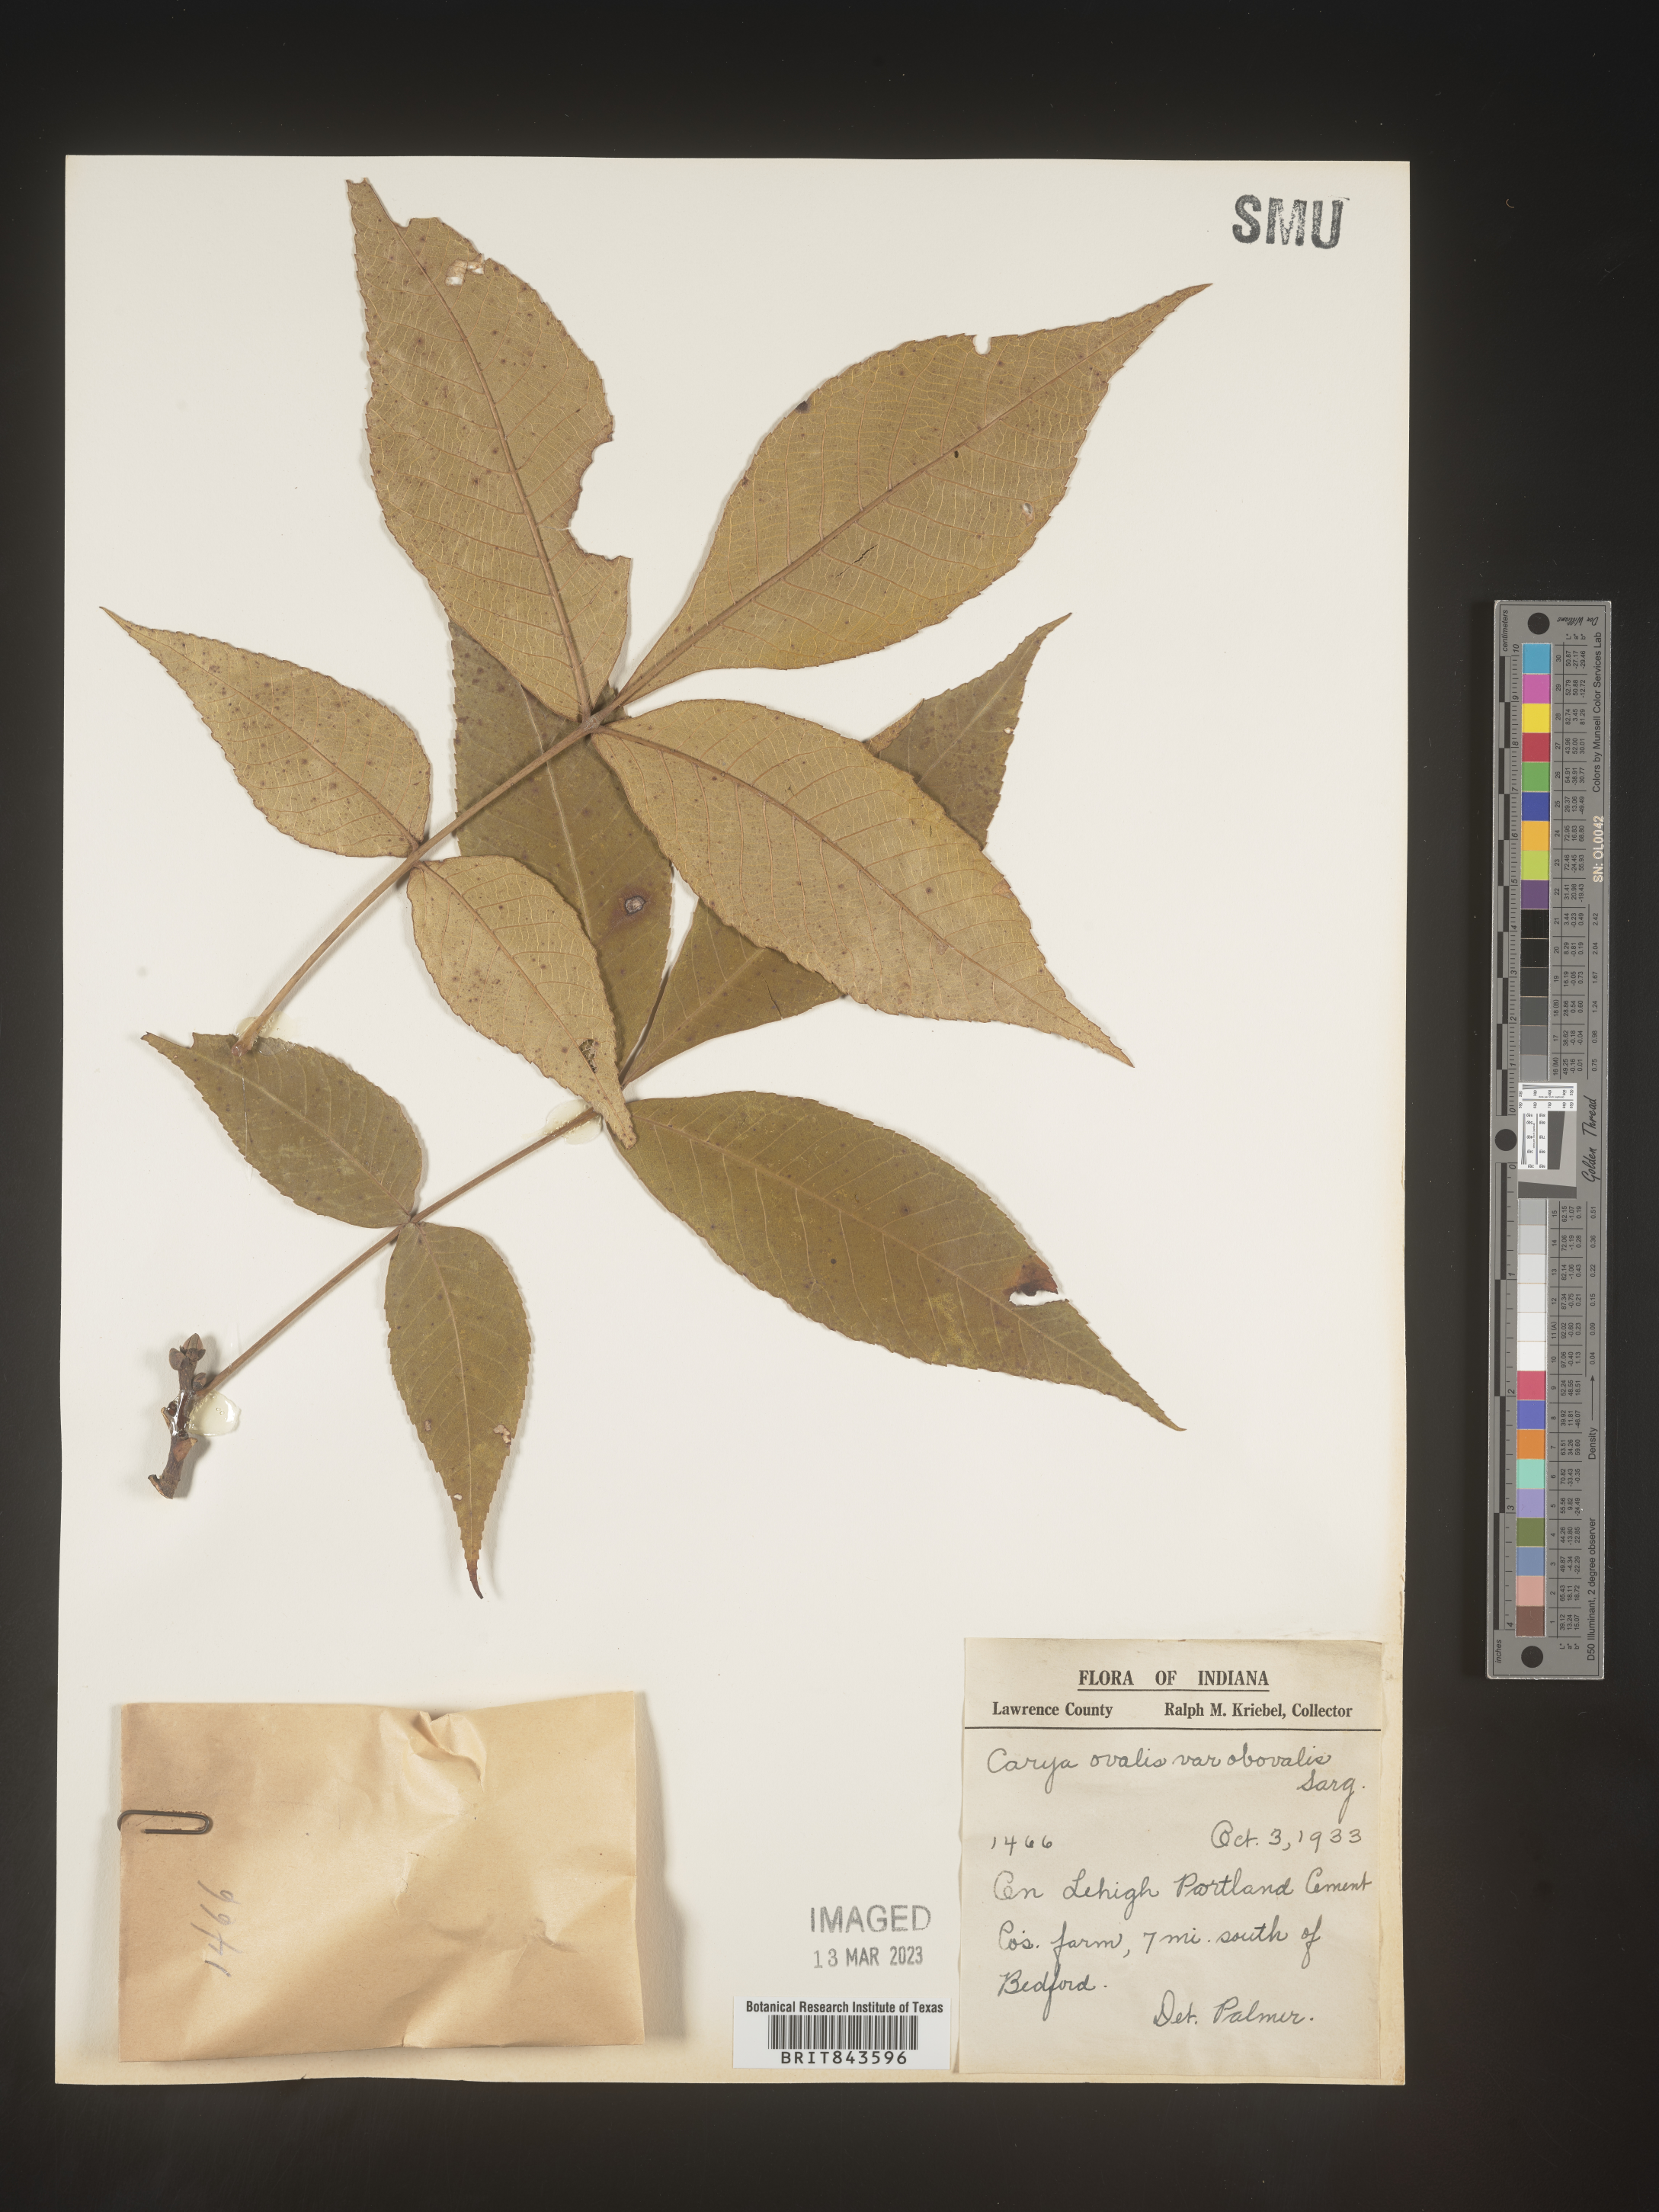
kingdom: Plantae
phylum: Tracheophyta
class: Magnoliopsida
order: Fagales
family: Juglandaceae
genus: Carya
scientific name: Carya ovalis
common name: False shagbark
